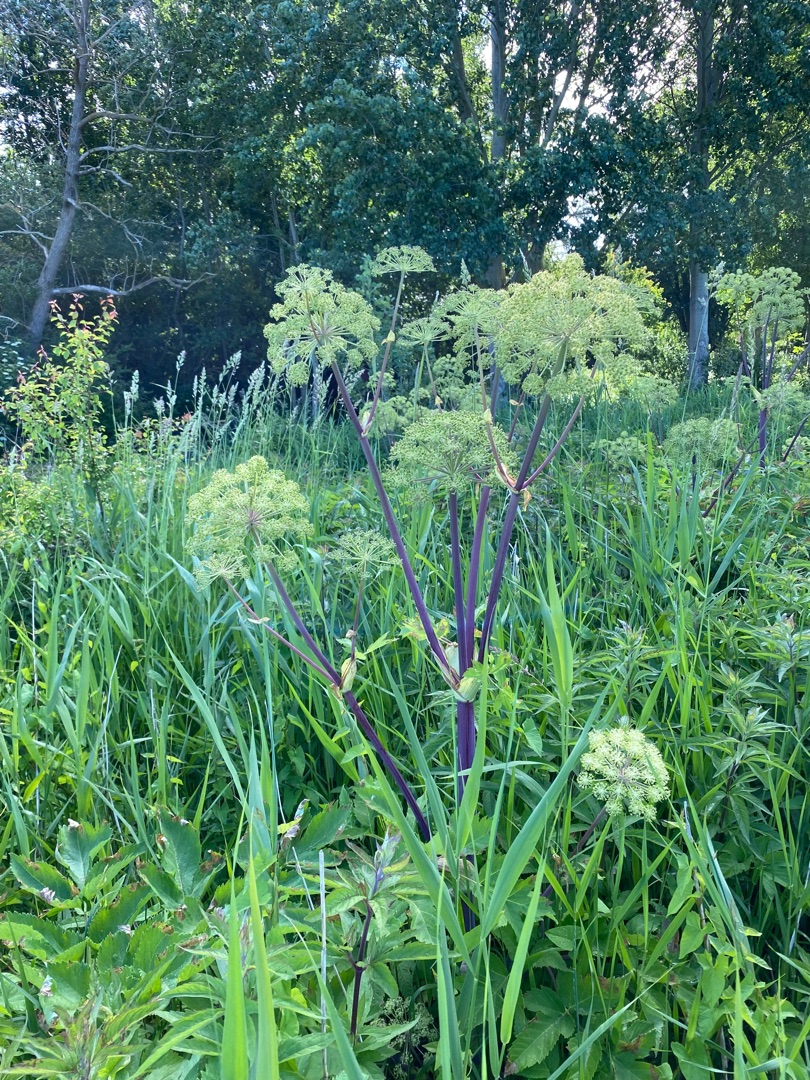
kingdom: Plantae
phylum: Tracheophyta
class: Magnoliopsida
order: Apiales
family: Apiaceae
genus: Angelica
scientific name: Angelica archangelica
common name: Kvan
